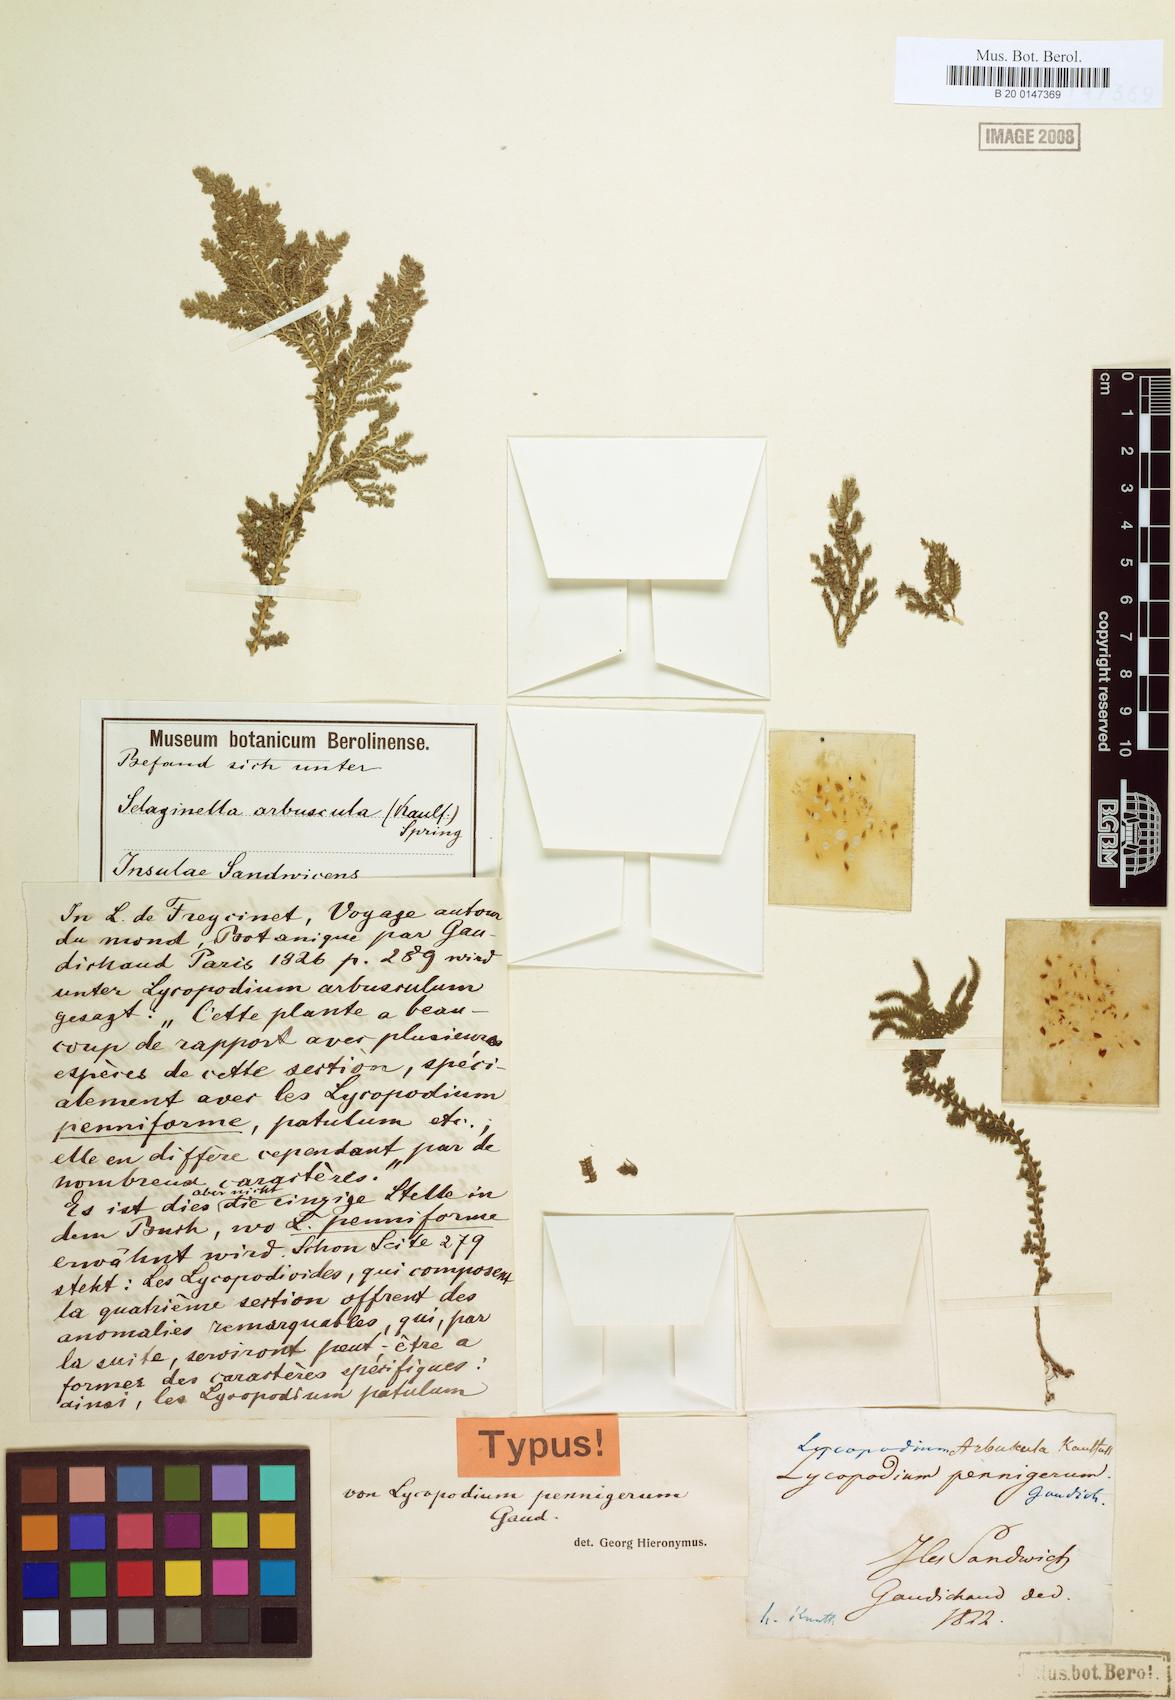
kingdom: Plantae
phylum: Tracheophyta
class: Lycopodiopsida
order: Selaginellales
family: Selaginellaceae
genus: Selaginella
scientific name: Selaginella arbuscula
